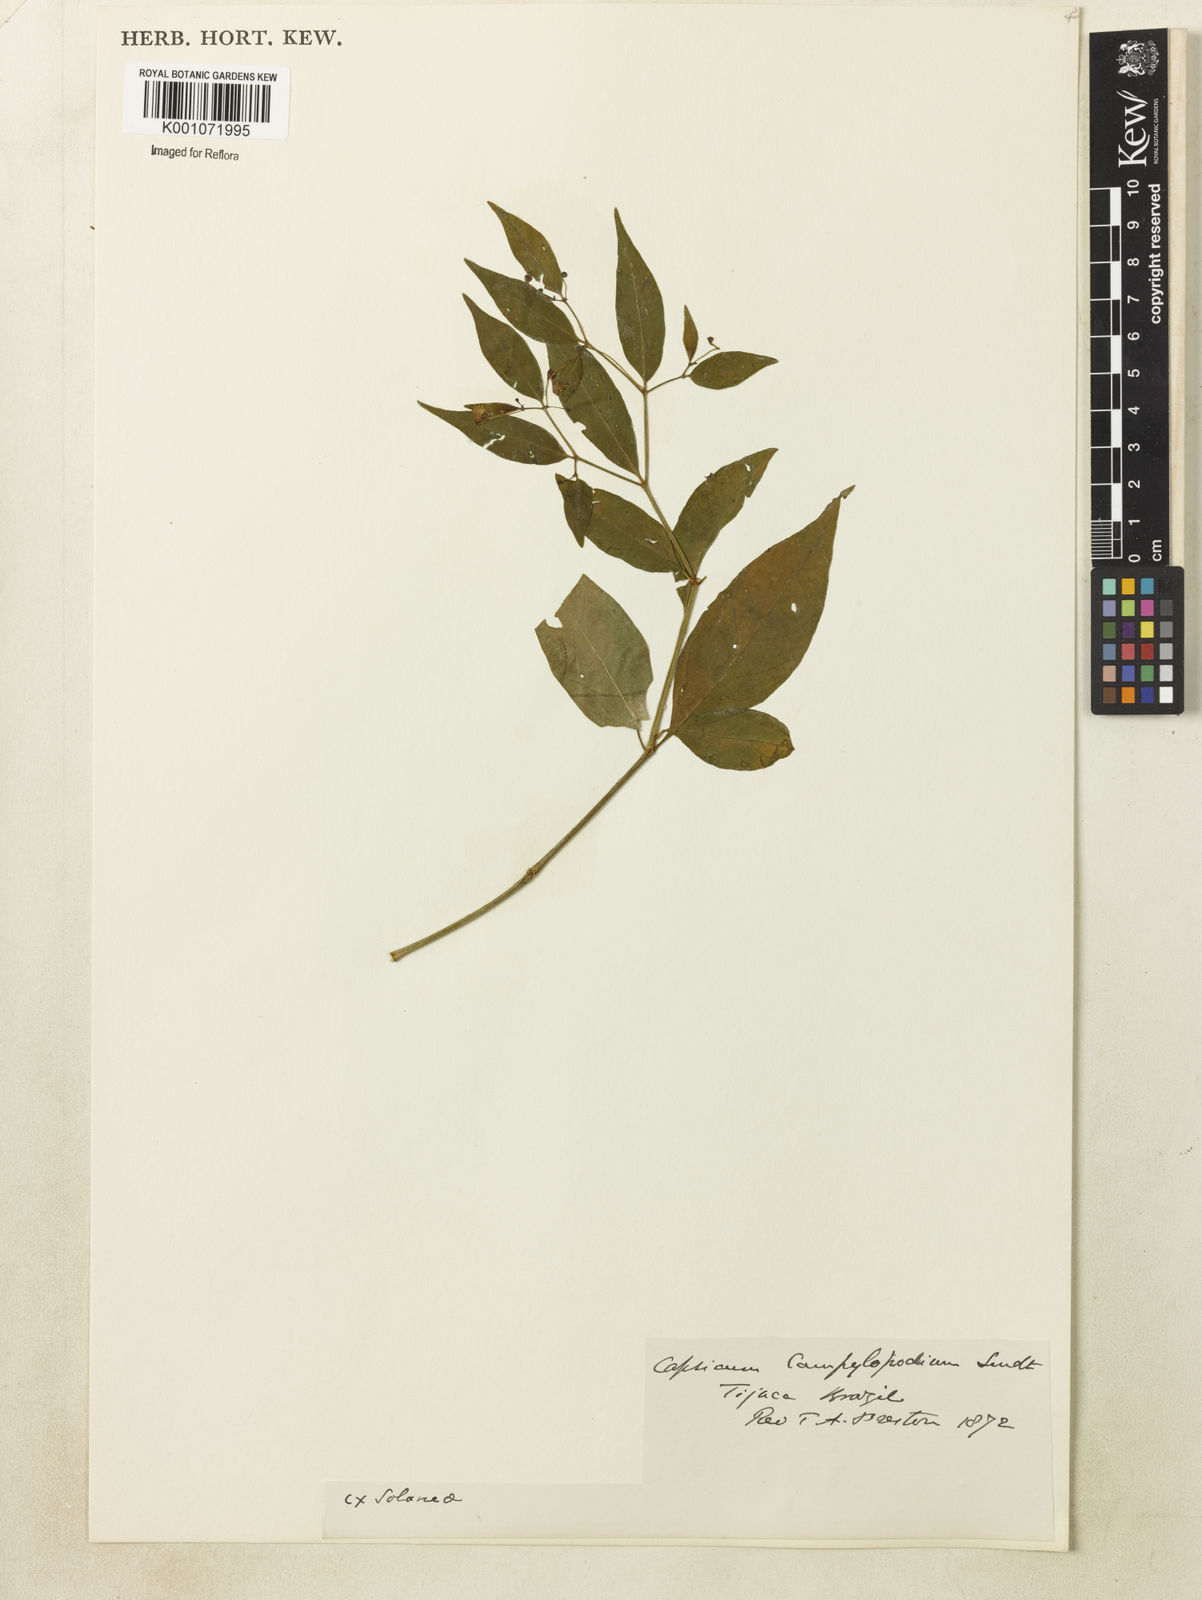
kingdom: Plantae
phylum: Tracheophyta
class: Magnoliopsida
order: Solanales
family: Solanaceae
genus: Capsicum
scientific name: Capsicum campylopodium
